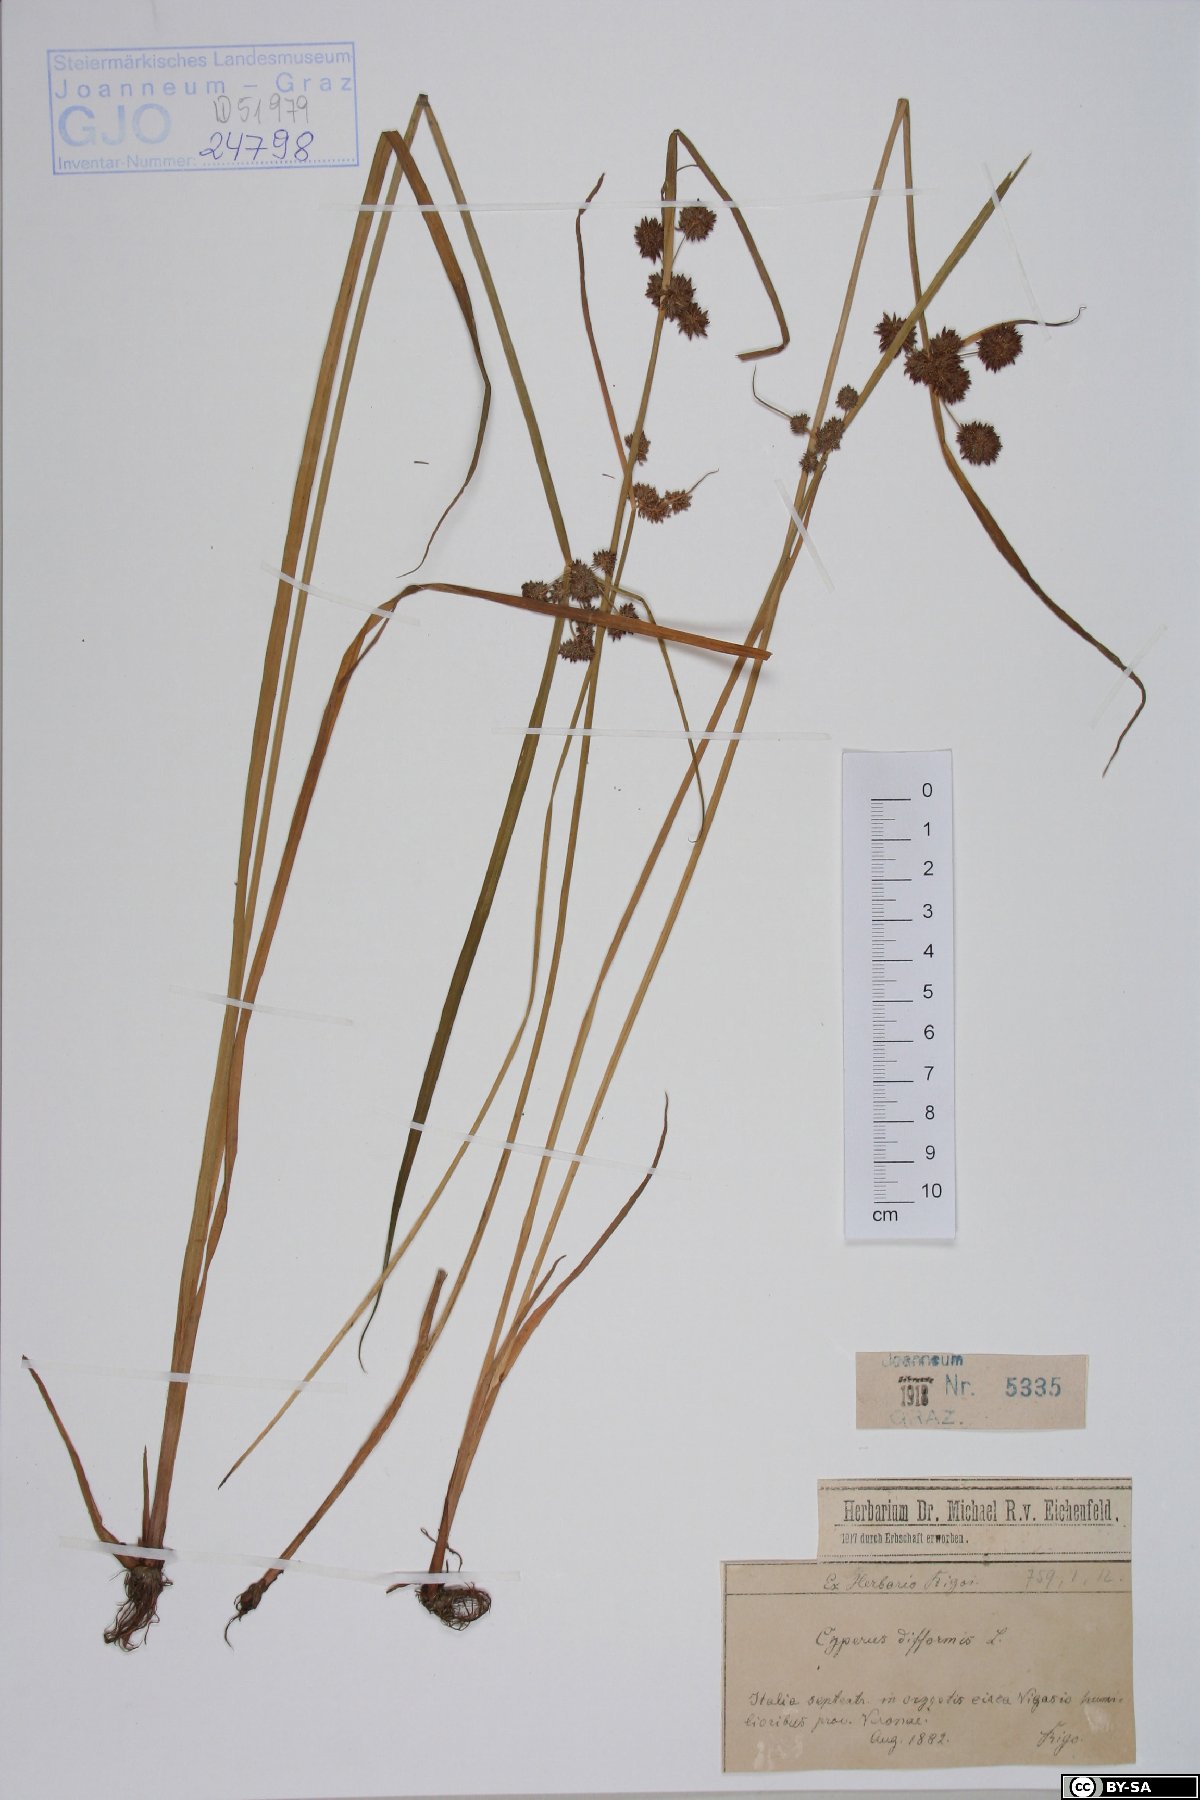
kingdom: Plantae
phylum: Tracheophyta
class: Liliopsida
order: Poales
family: Cyperaceae
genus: Cyperus
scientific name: Cyperus difformis
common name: Variable flatsedge
